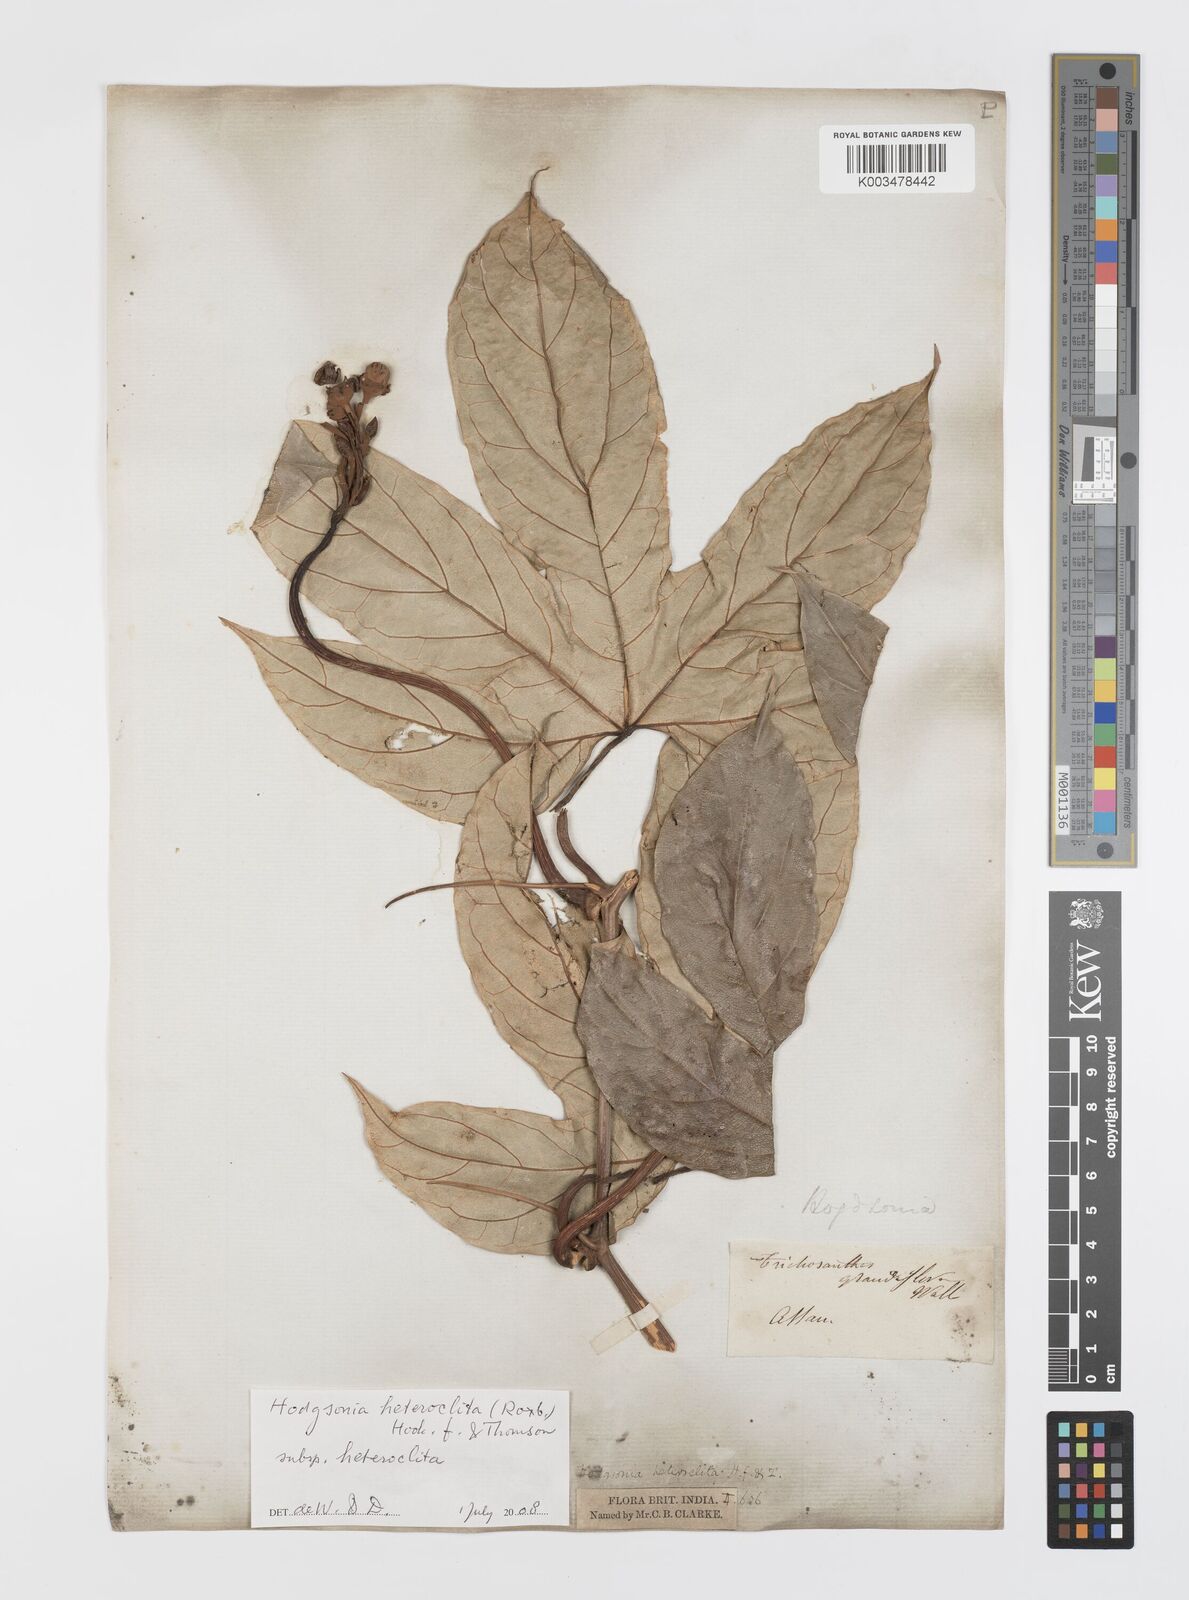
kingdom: Plantae
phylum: Tracheophyta
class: Magnoliopsida
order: Cucurbitales
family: Cucurbitaceae
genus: Hodgsonia
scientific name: Hodgsonia macrocarpa
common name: Chinese lardfruit
